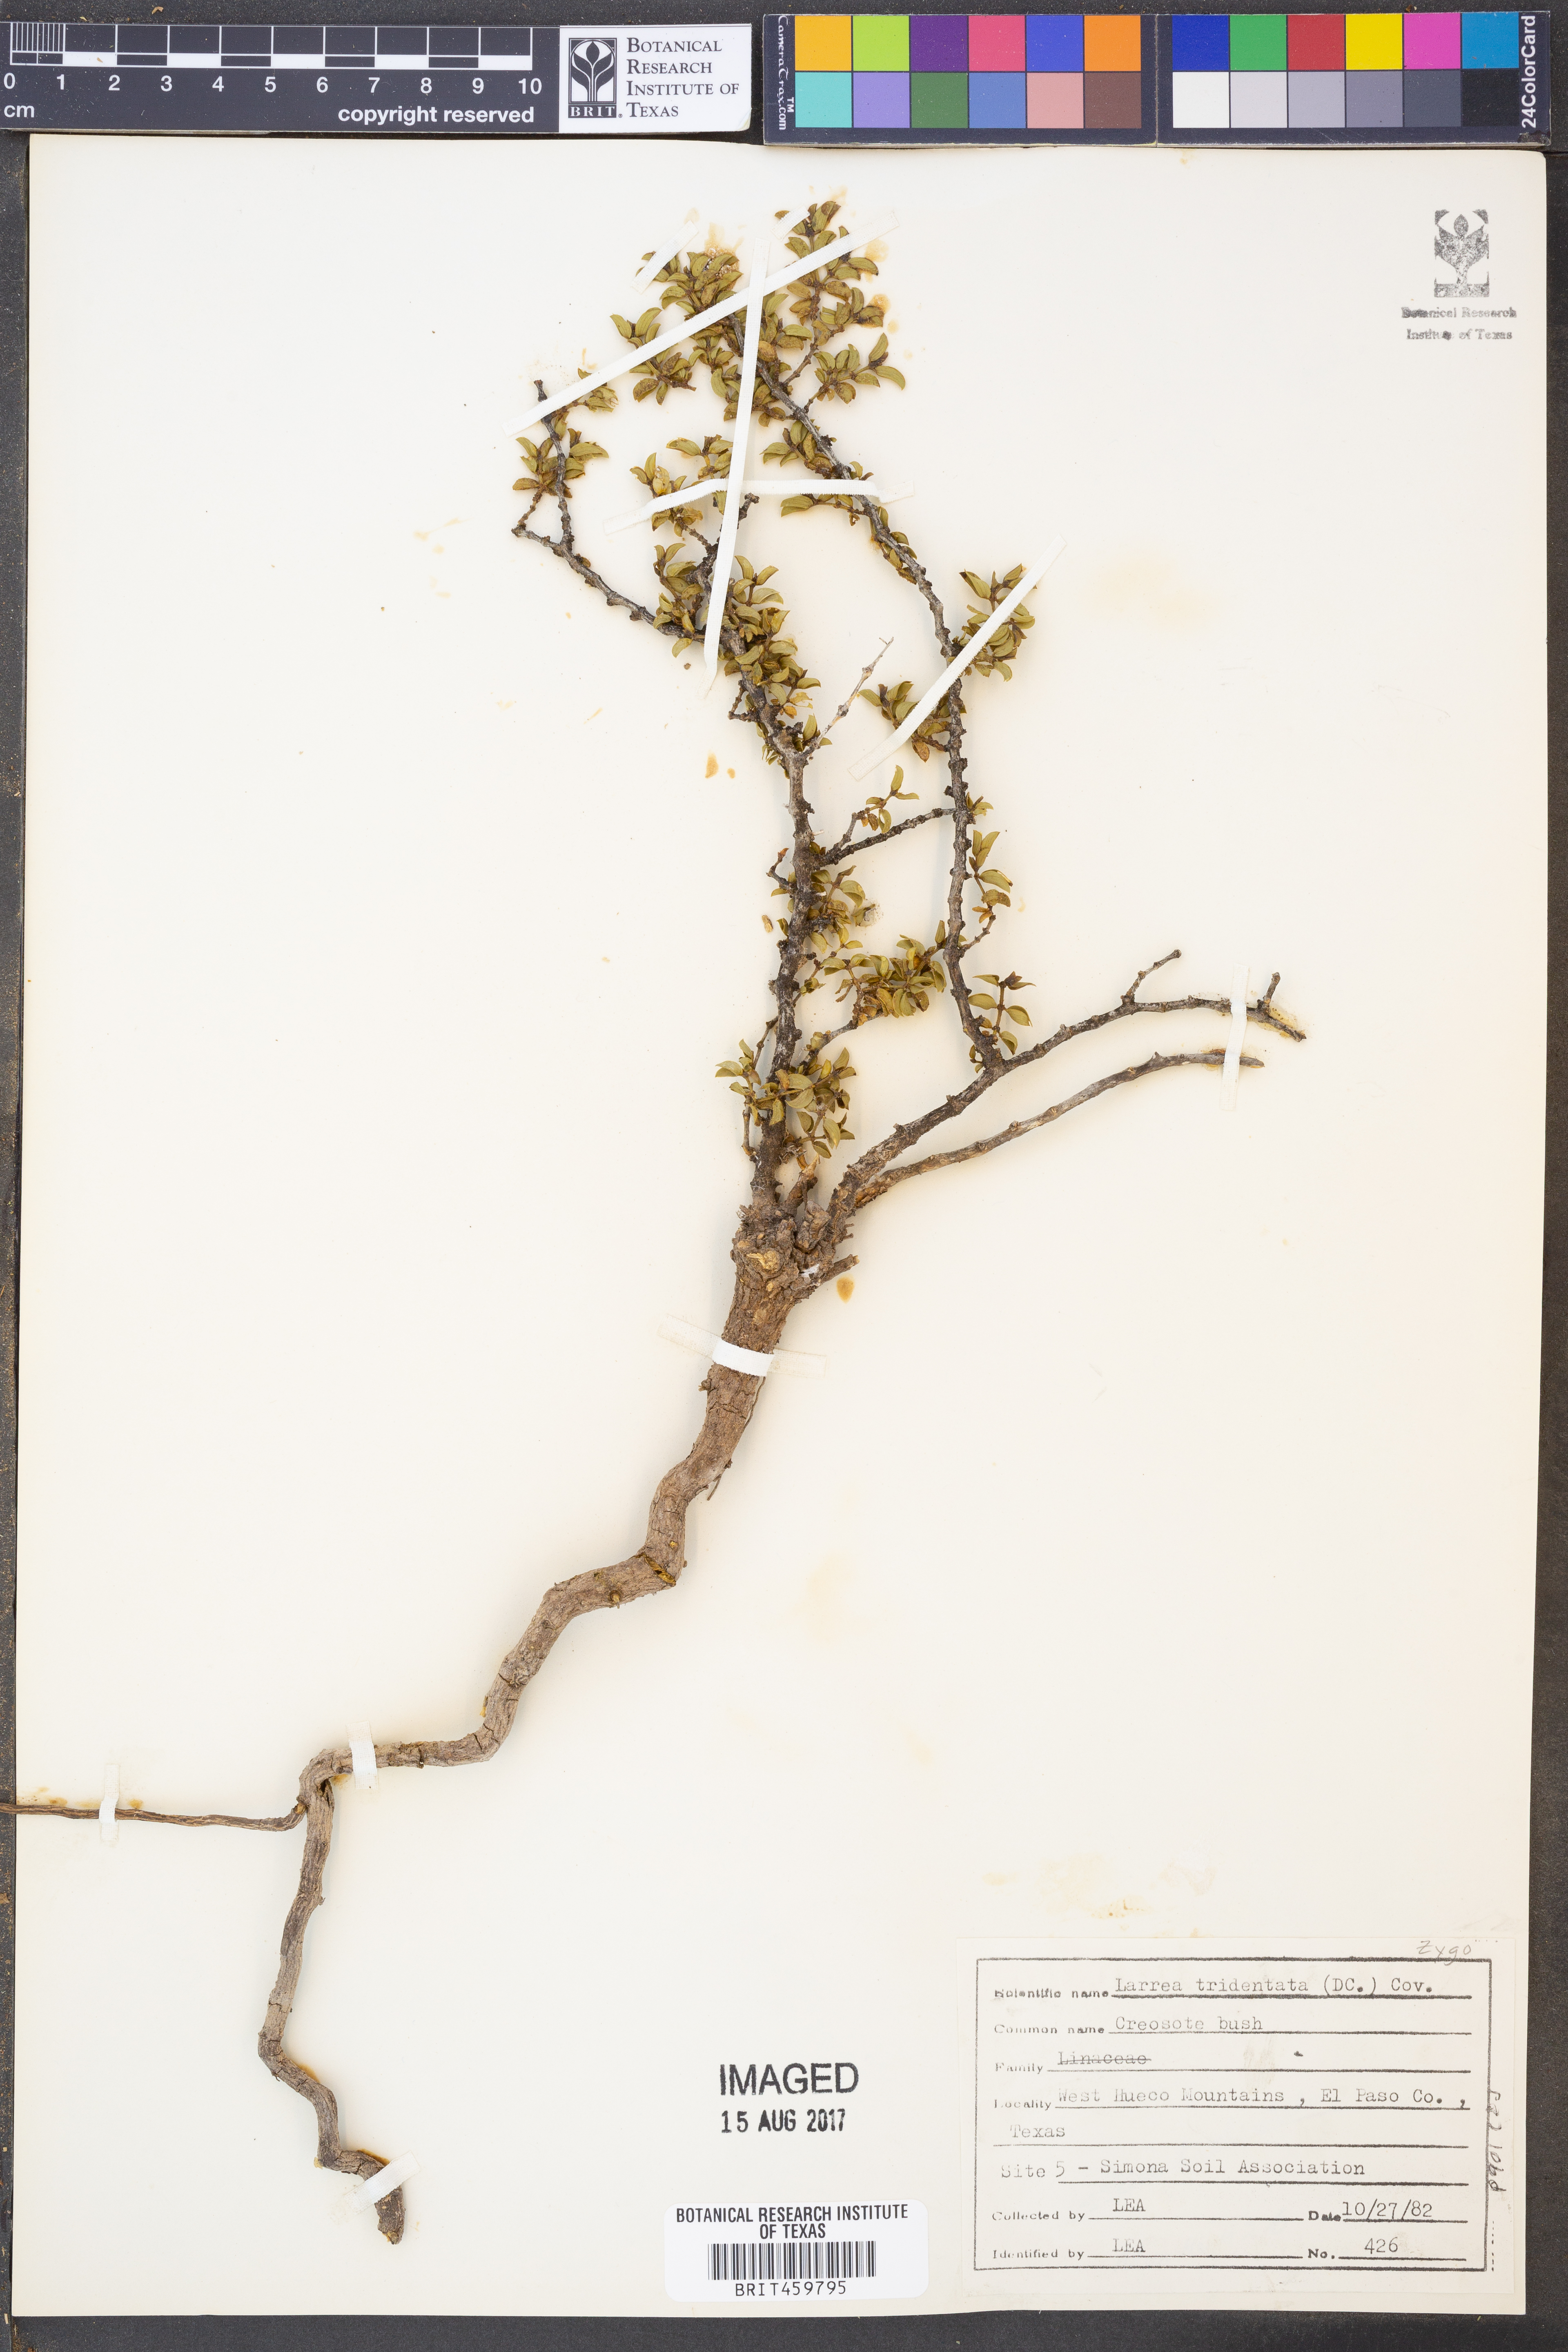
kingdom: Plantae
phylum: Tracheophyta
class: Magnoliopsida
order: Zygophyllales
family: Zygophyllaceae
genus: Larrea
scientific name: Larrea tridentata
